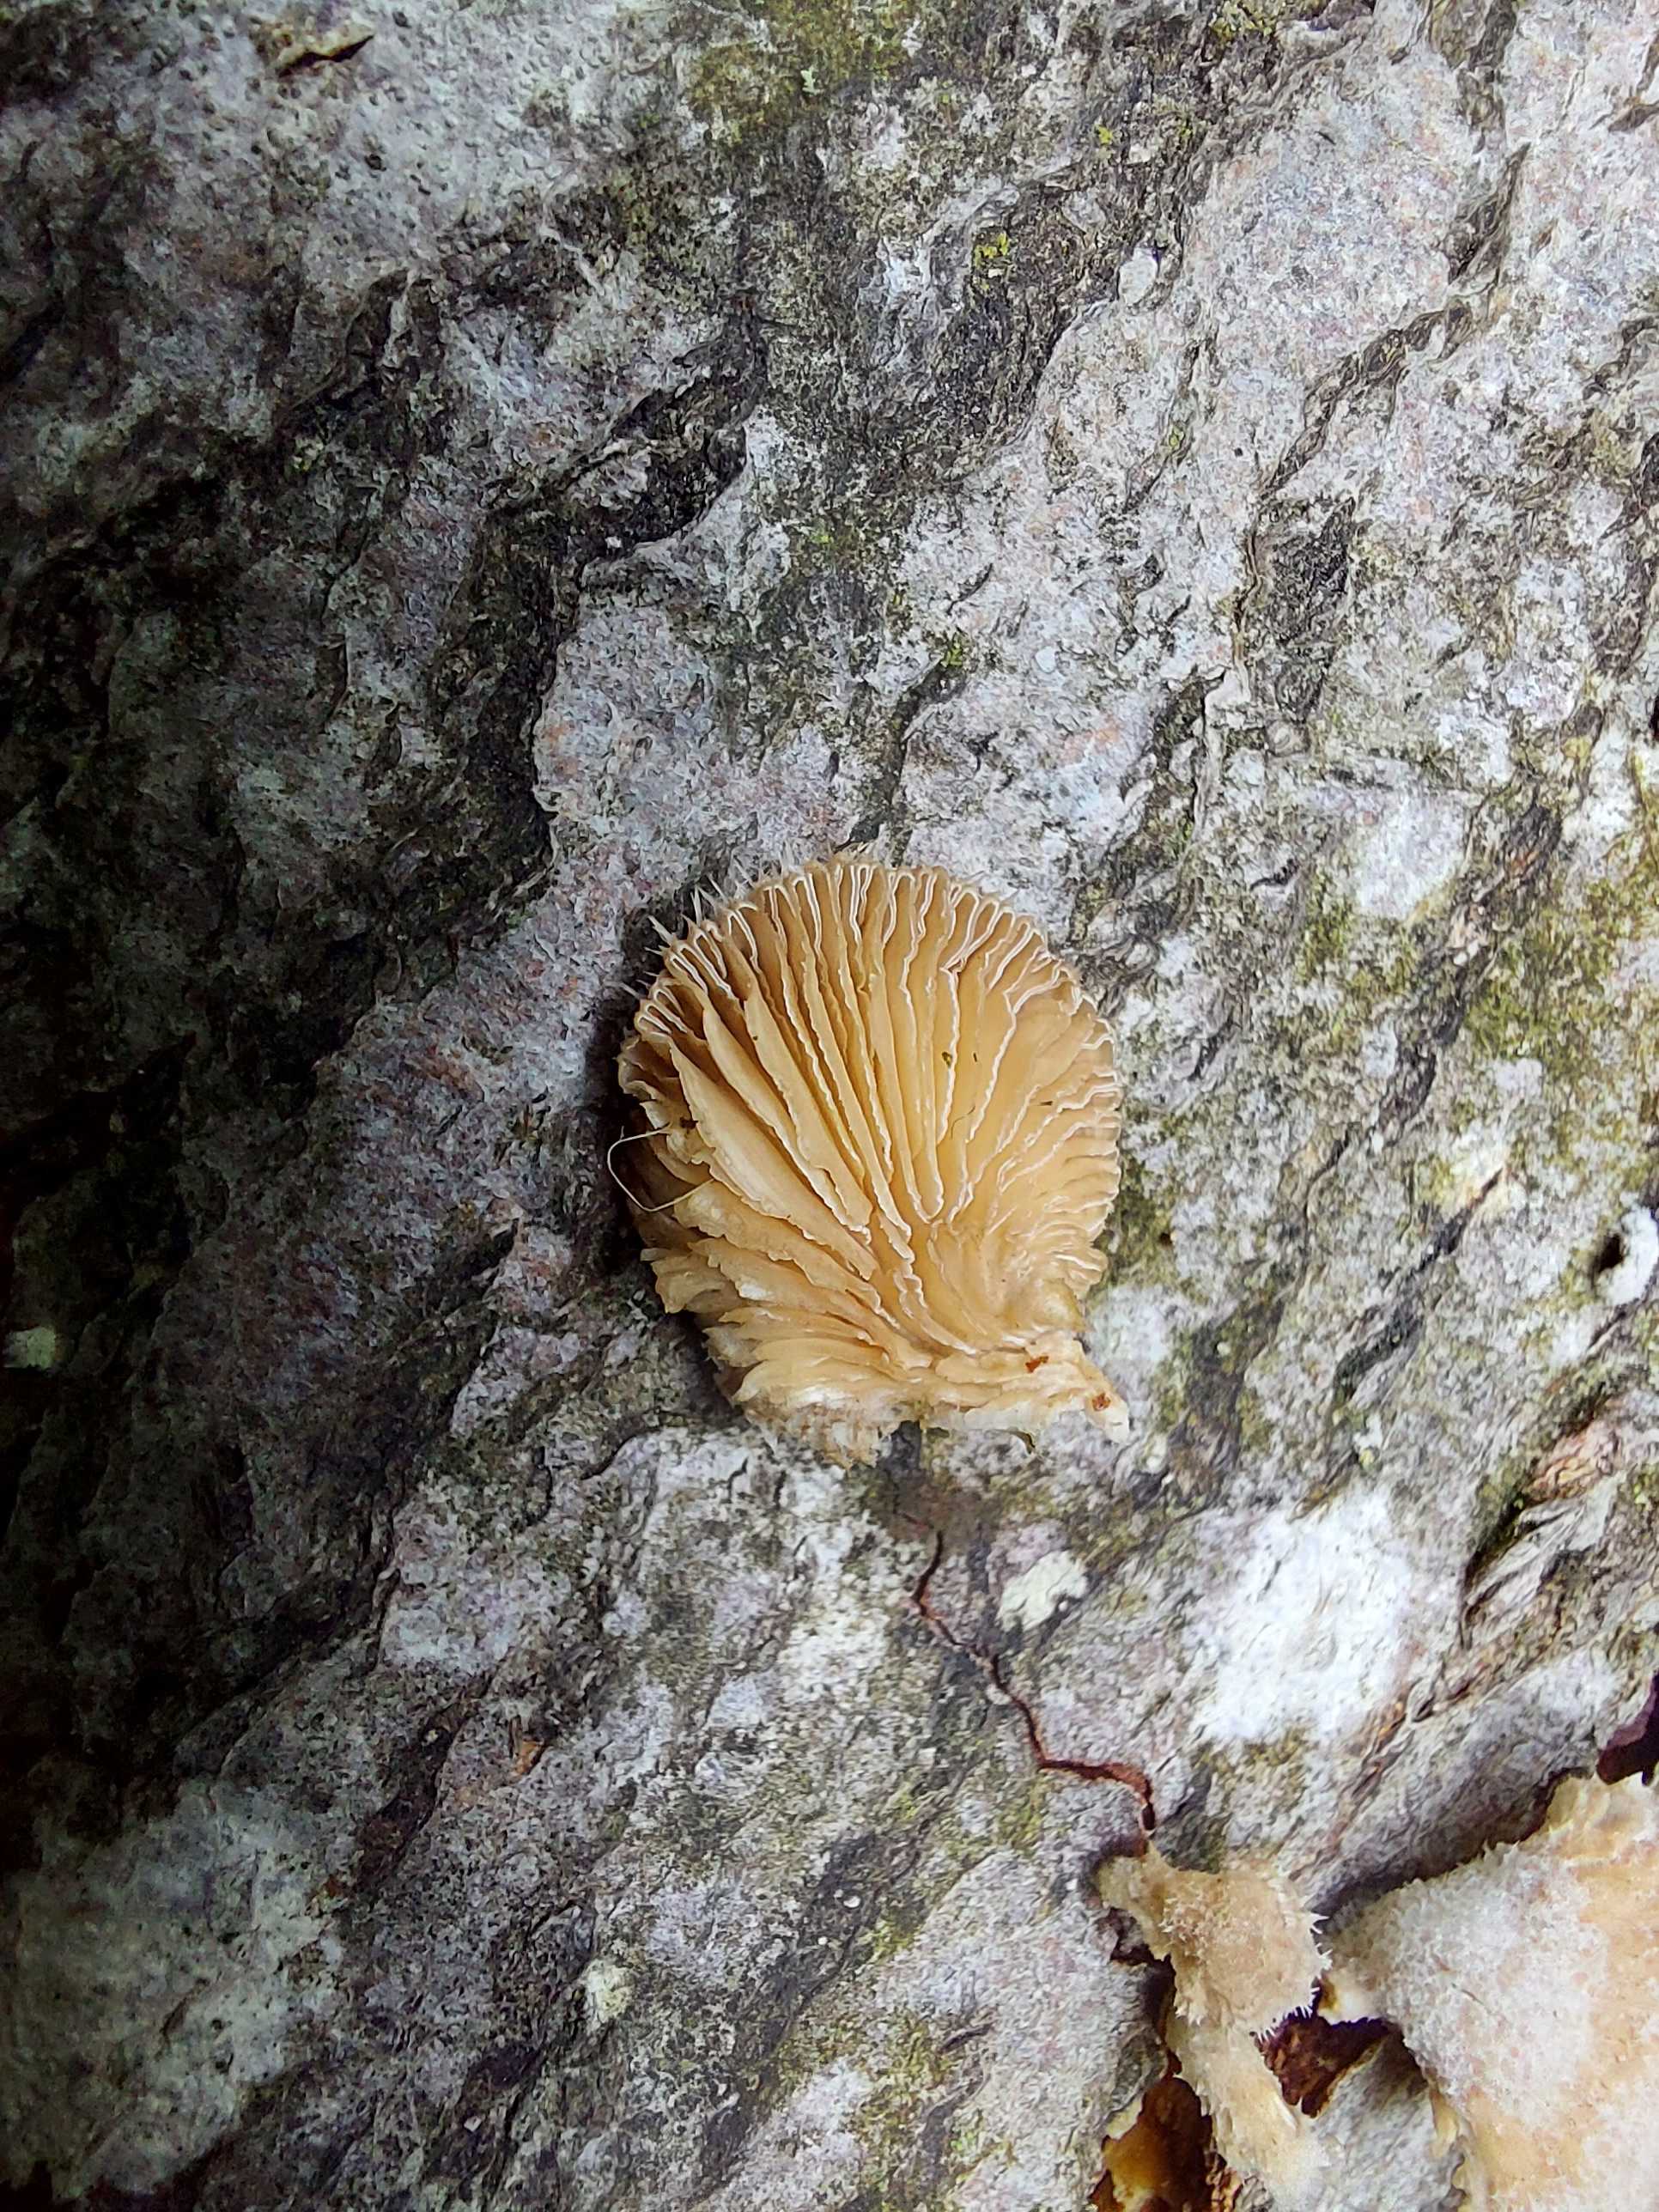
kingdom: Fungi
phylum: Basidiomycota
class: Agaricomycetes
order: Agaricales
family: Schizophyllaceae
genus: Schizophyllum
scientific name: Schizophyllum commune
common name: kløvblad
